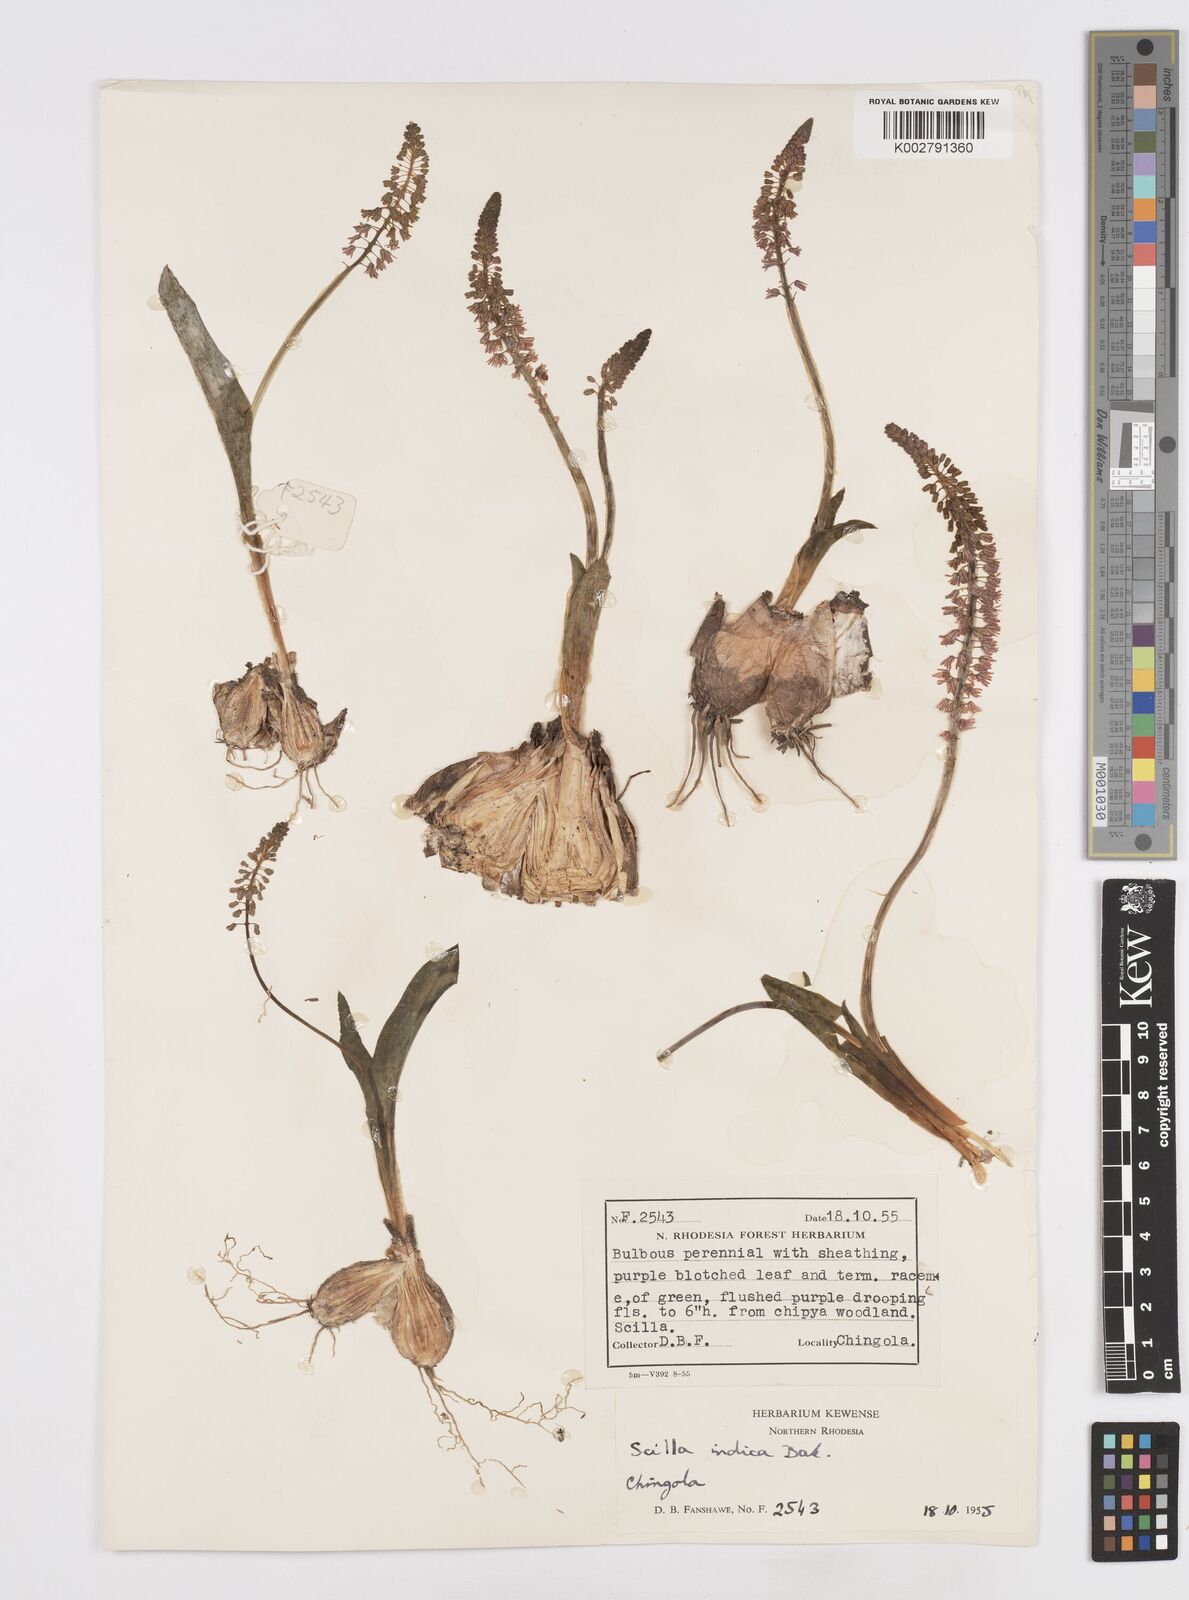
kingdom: Plantae
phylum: Tracheophyta
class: Liliopsida
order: Asparagales
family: Asparagaceae
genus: Ledebouria
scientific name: Ledebouria revoluta
